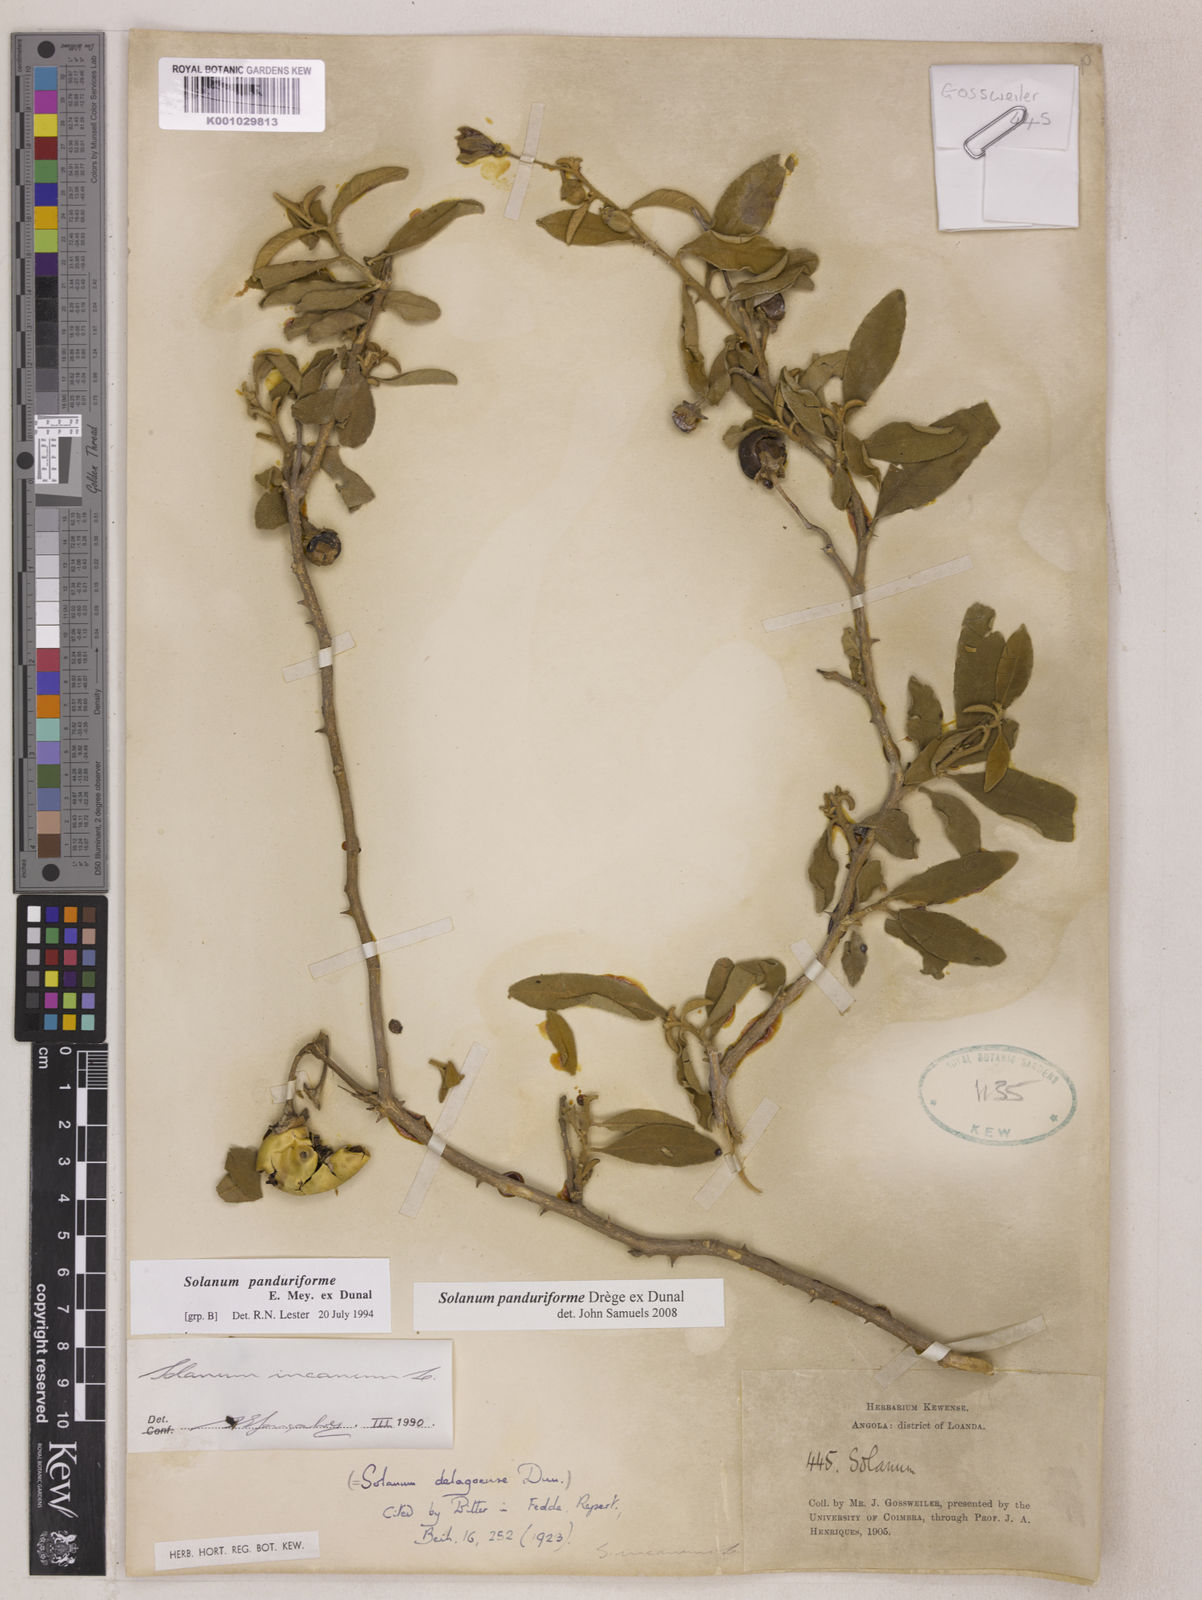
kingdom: Plantae
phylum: Tracheophyta
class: Magnoliopsida
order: Solanales
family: Solanaceae
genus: Solanum
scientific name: Solanum campylacanthum
